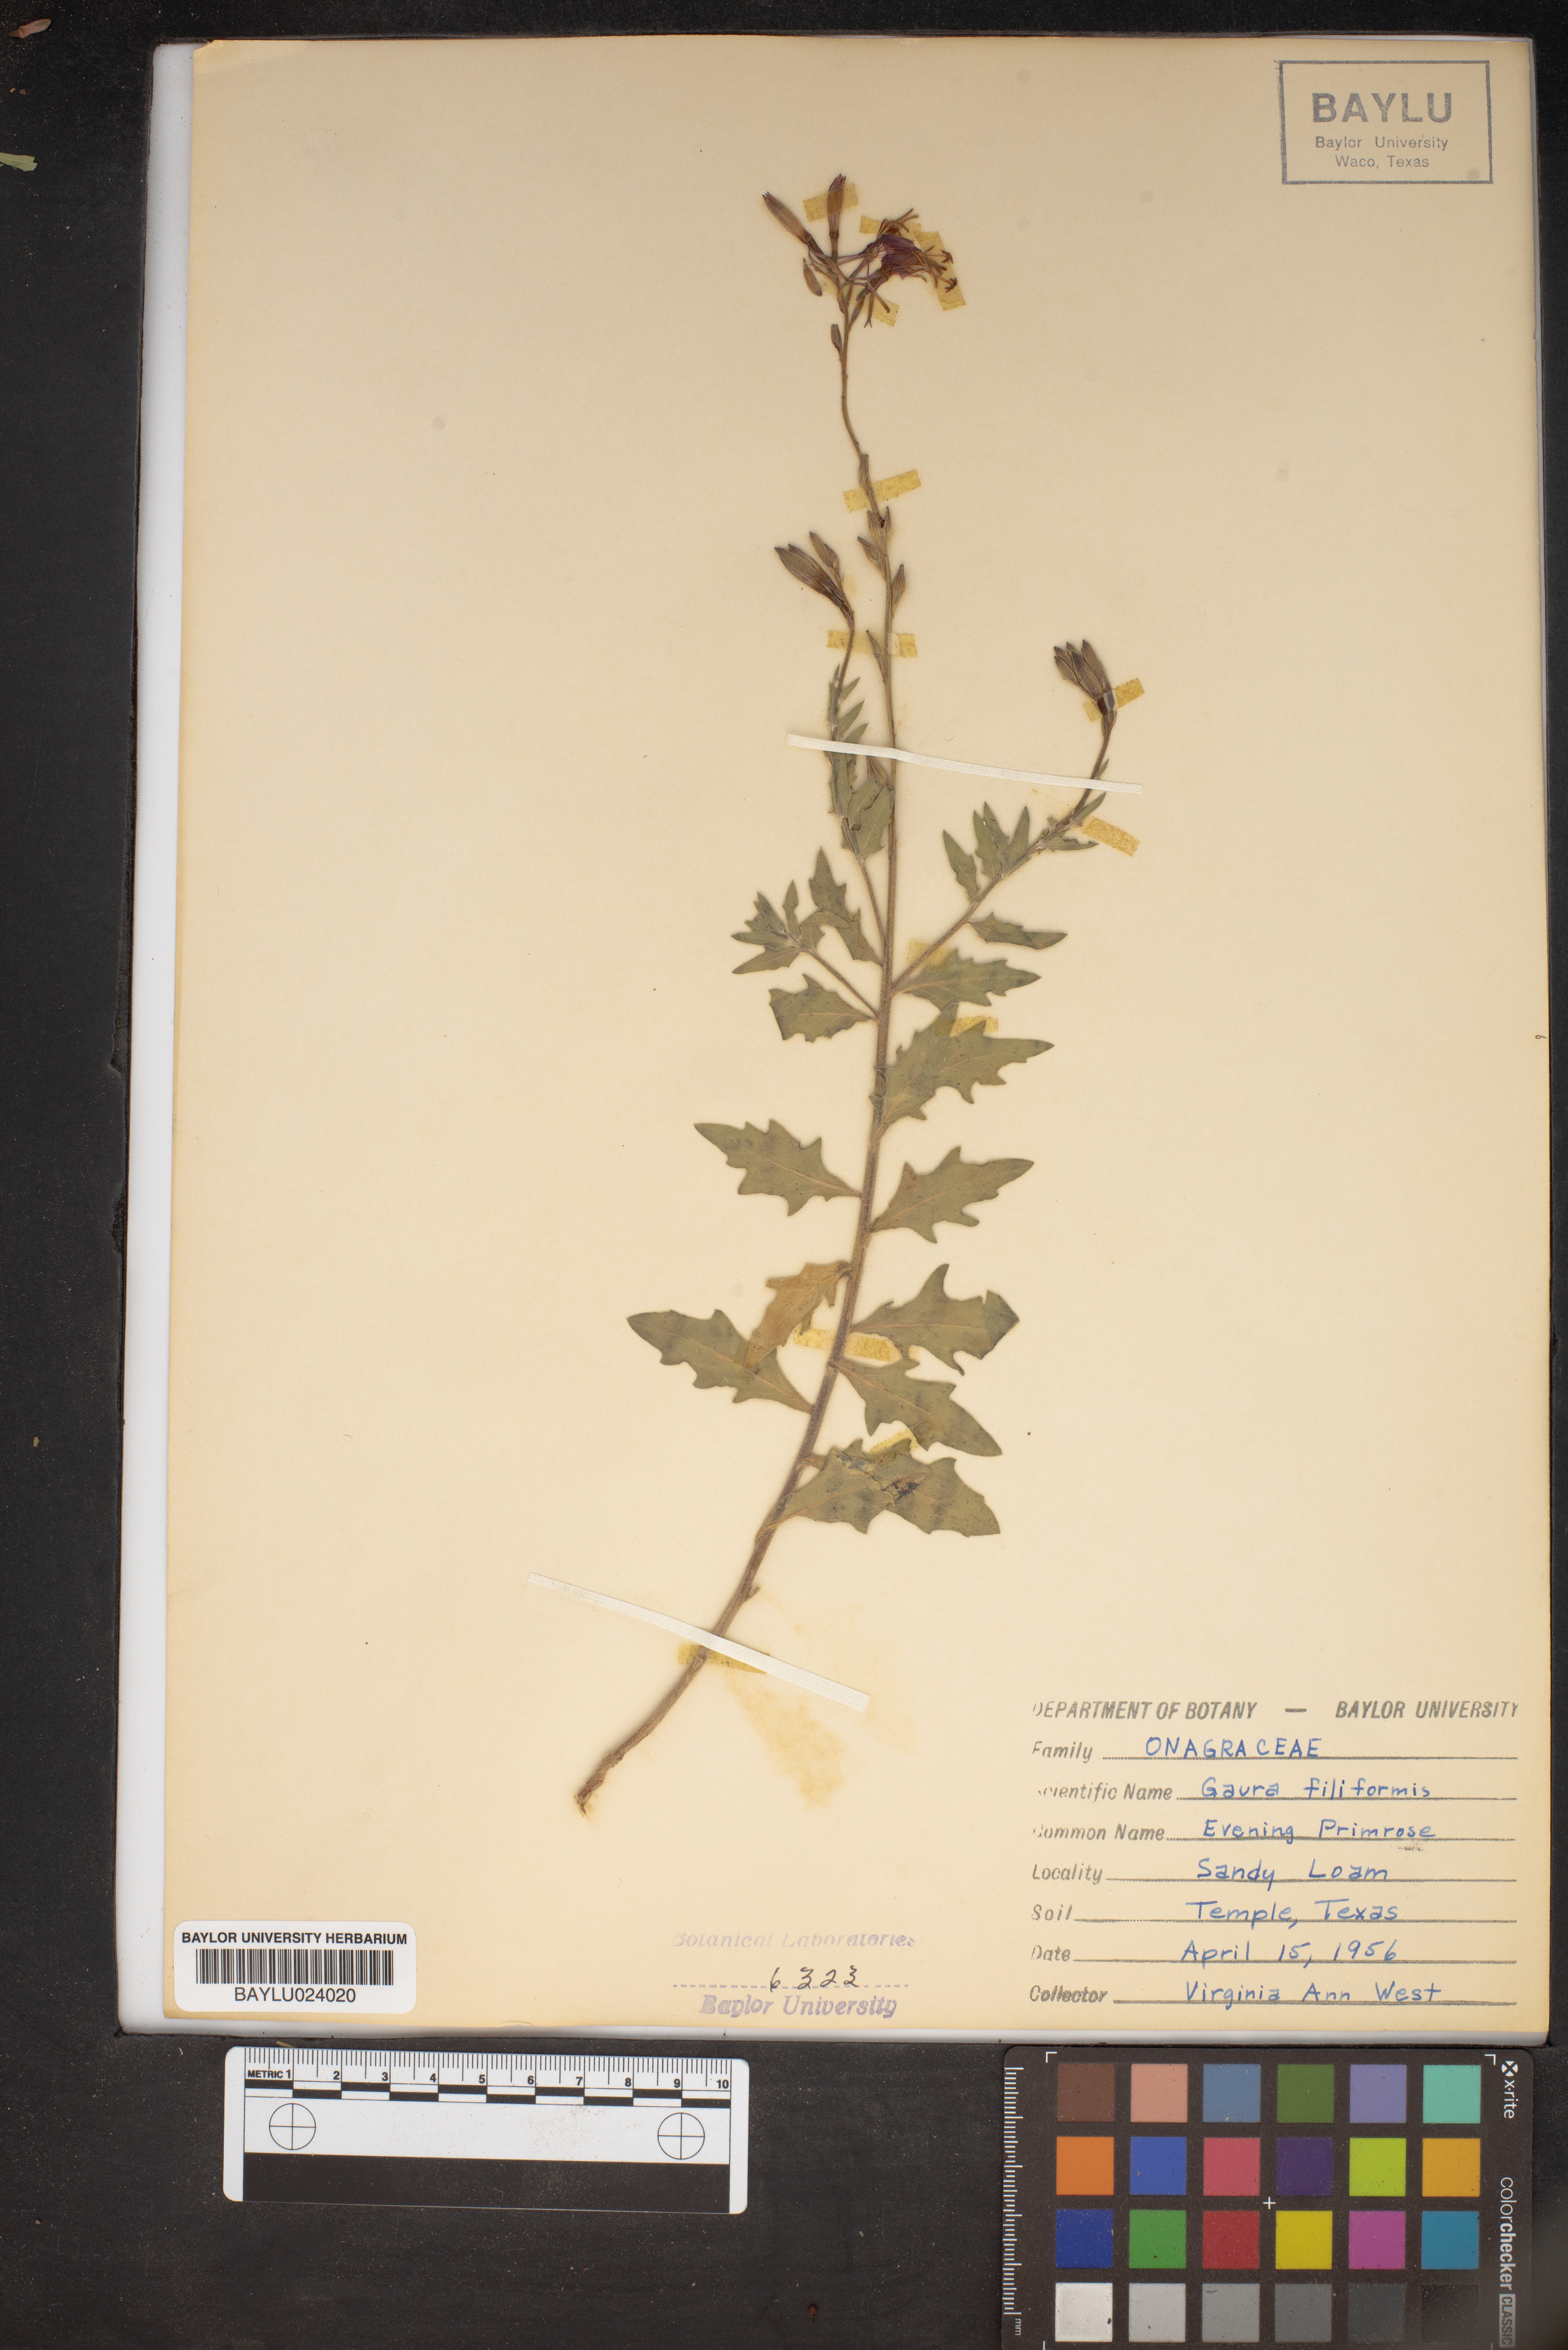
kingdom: Plantae
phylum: Tracheophyta
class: Magnoliopsida
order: Myrtales
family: Onagraceae
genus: Oenothera
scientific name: Oenothera filiformis
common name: Longflower beeblossom
